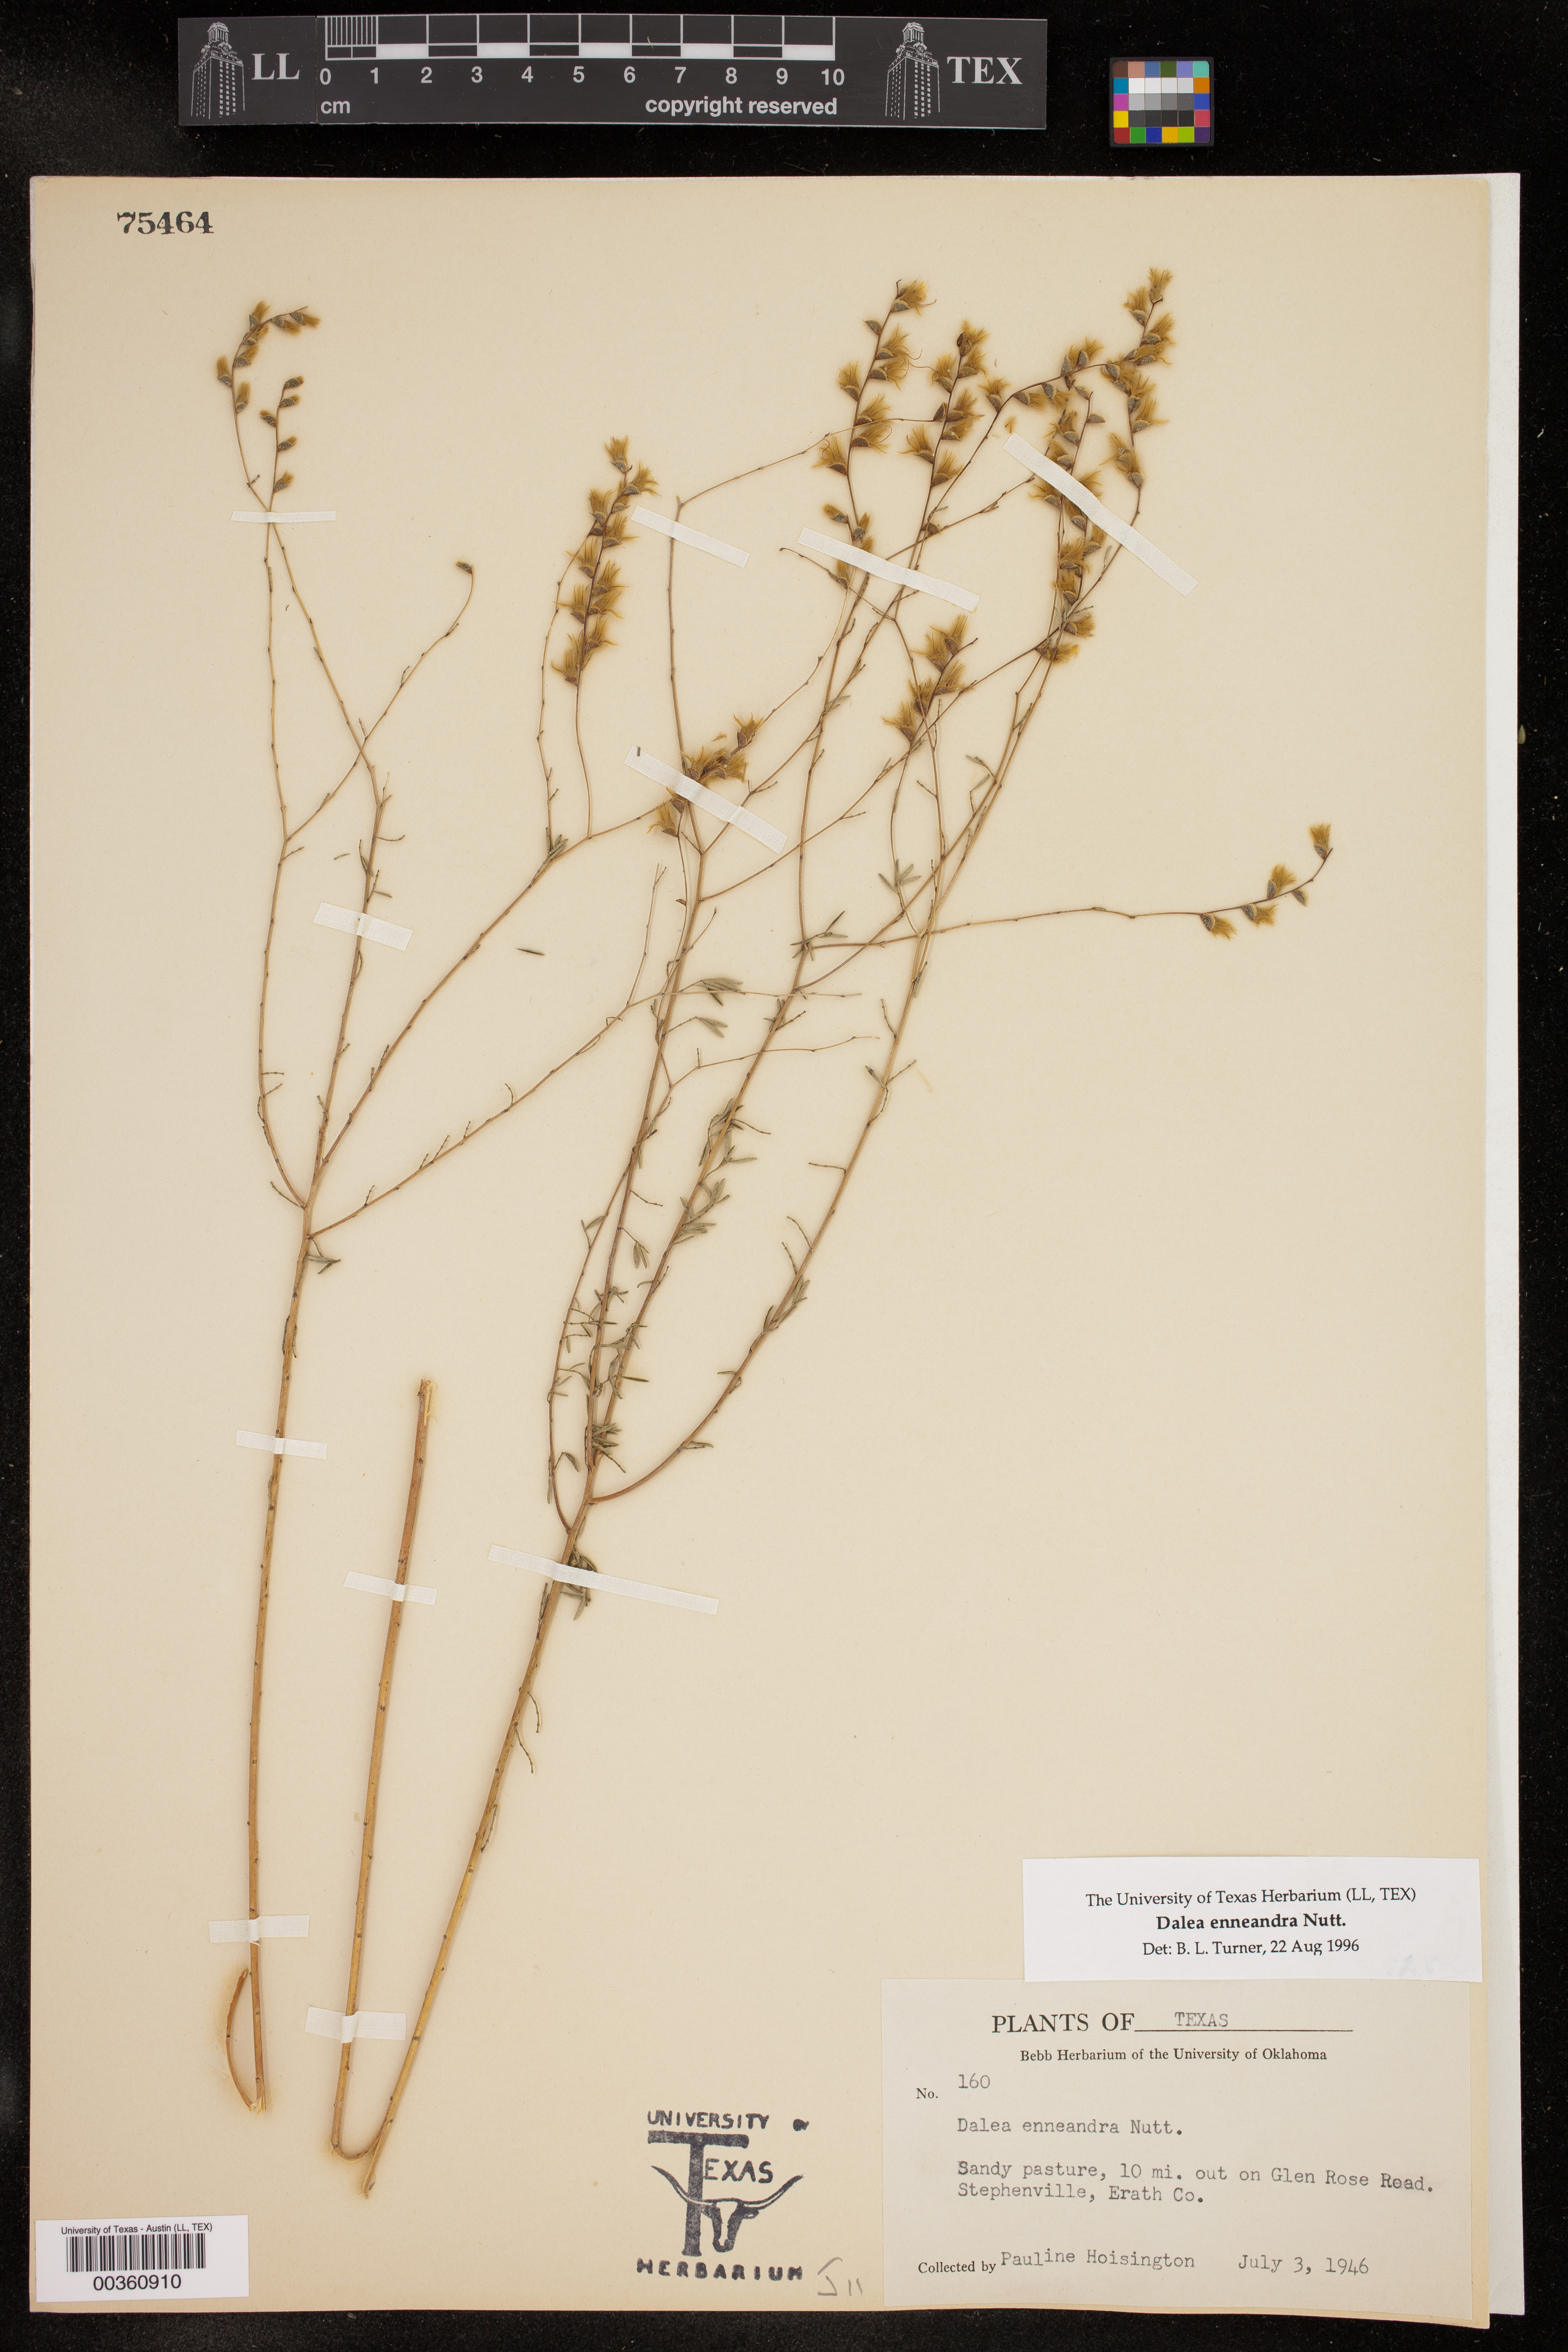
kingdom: Plantae
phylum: Tracheophyta
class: Magnoliopsida
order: Fabales
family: Fabaceae
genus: Dalea
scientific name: Dalea enneandra
